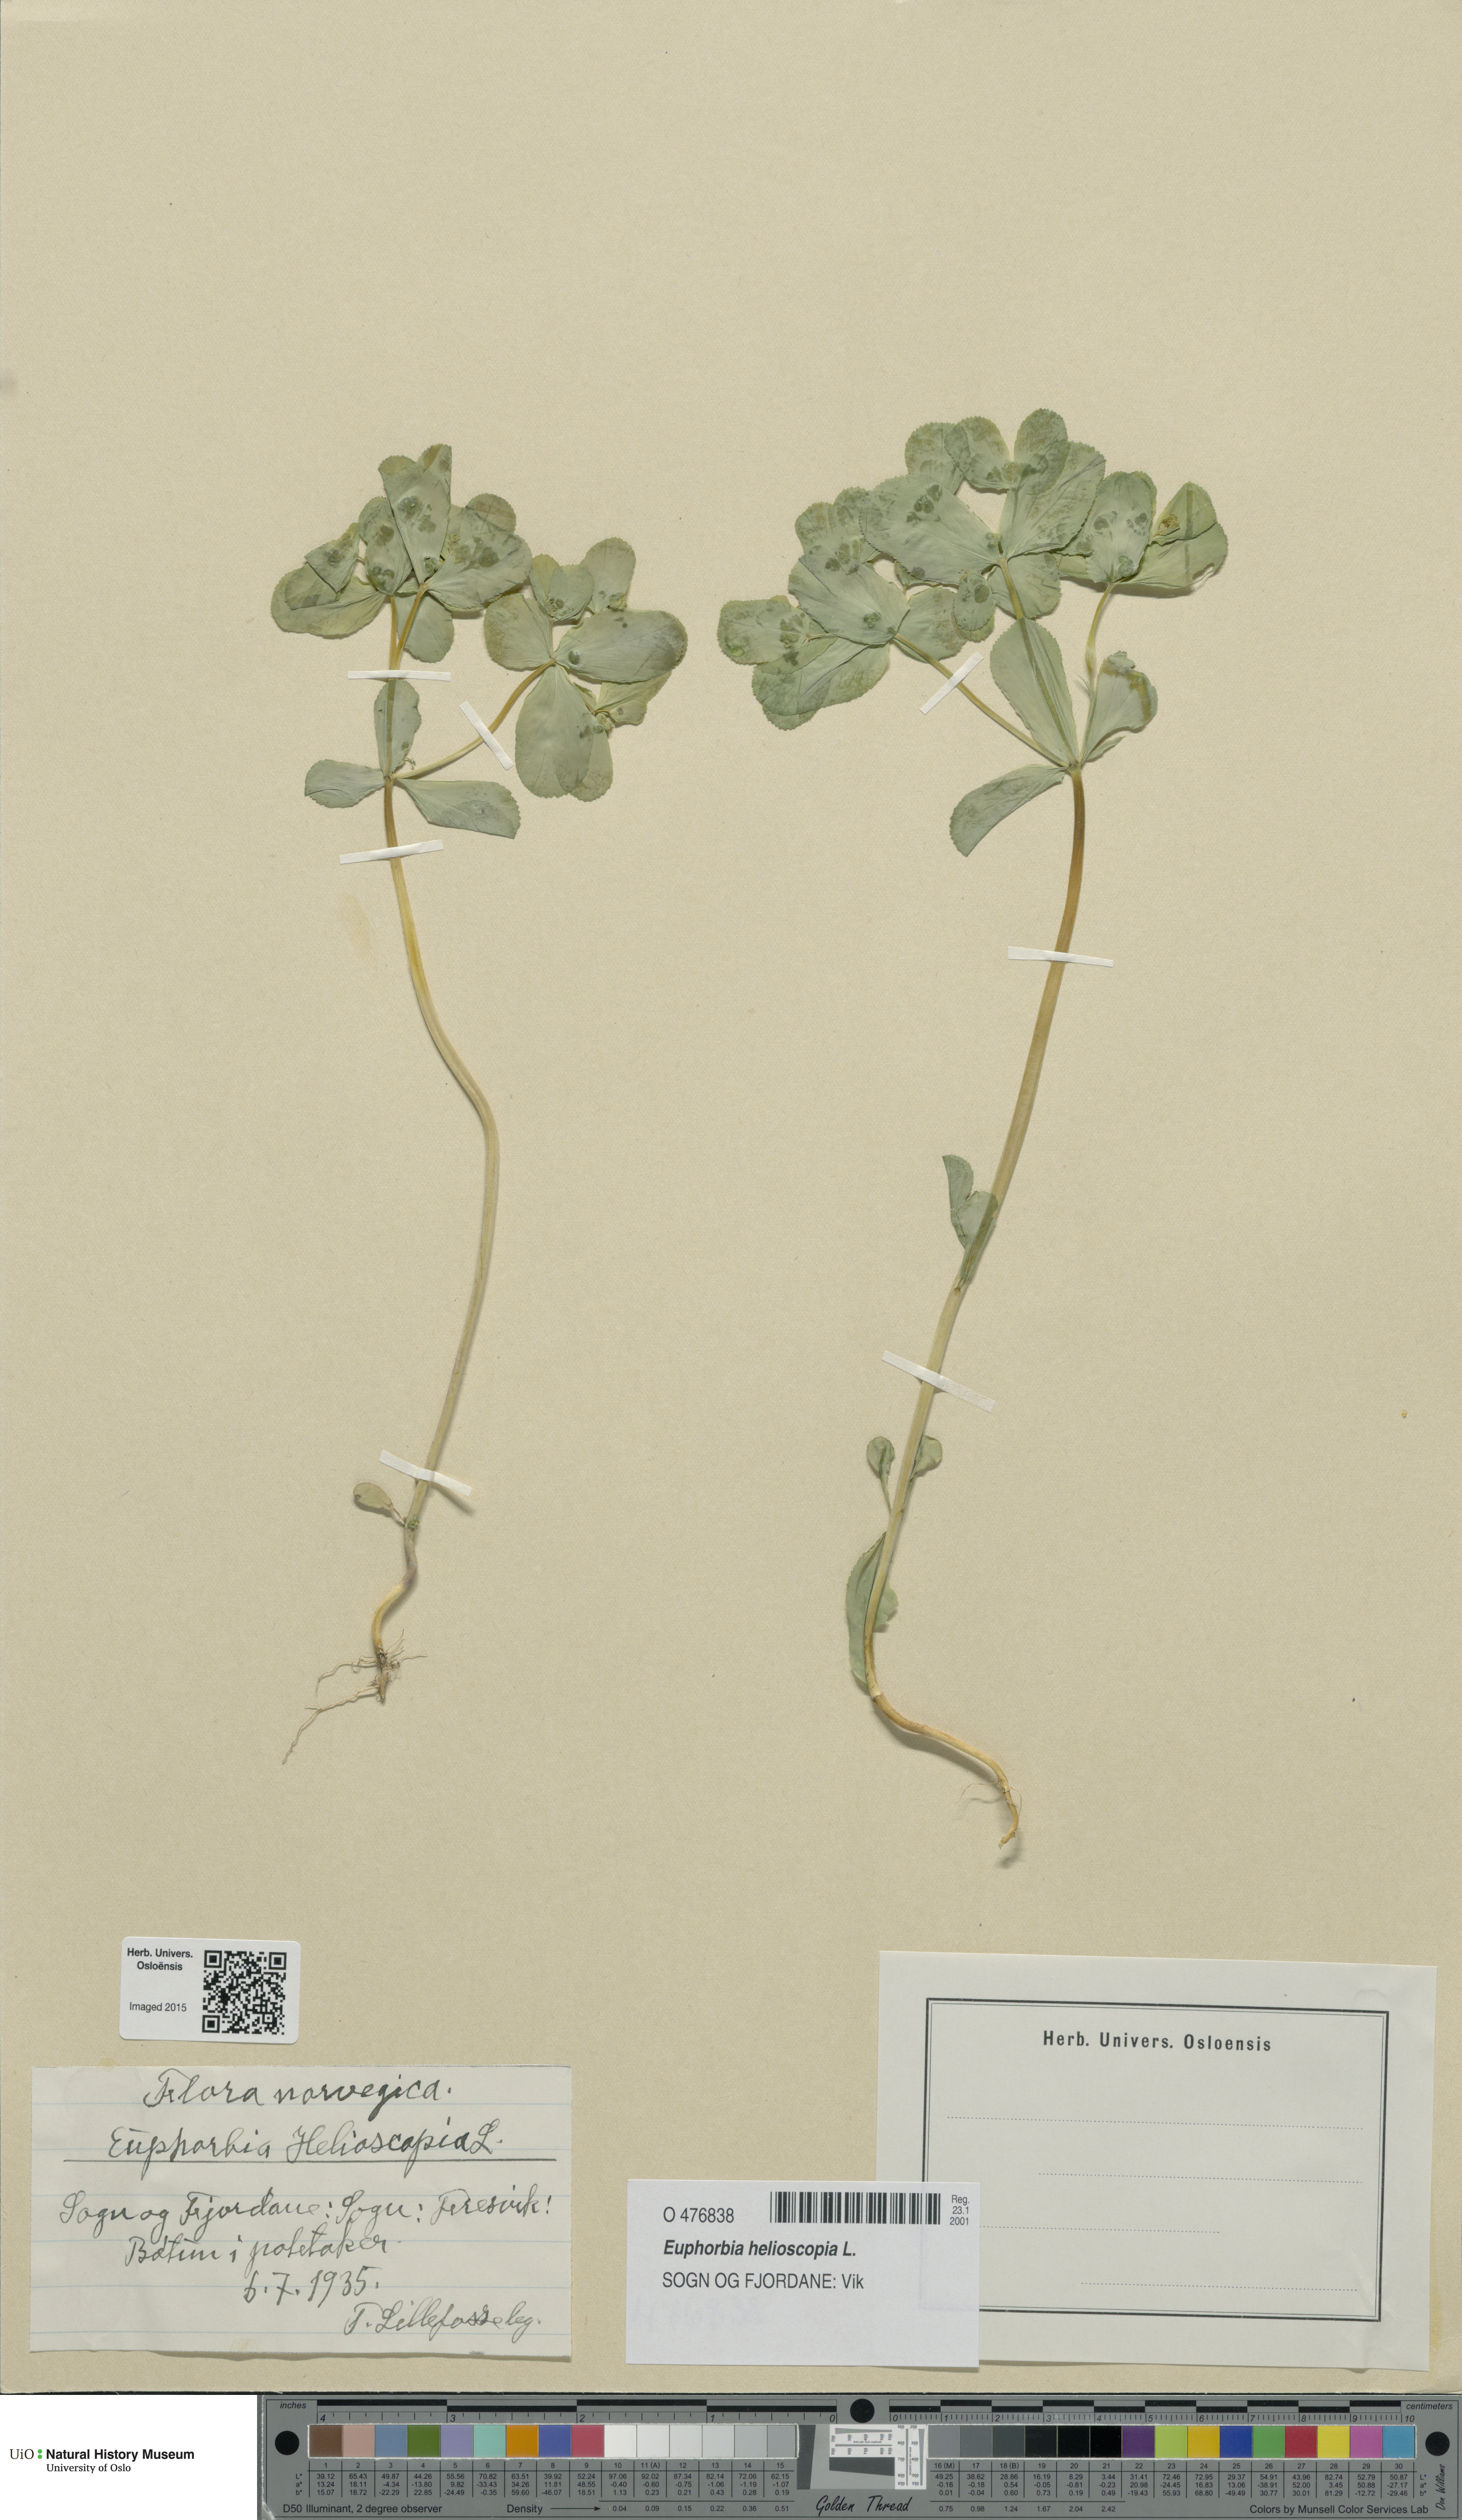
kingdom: Plantae
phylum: Tracheophyta
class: Magnoliopsida
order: Malpighiales
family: Euphorbiaceae
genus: Euphorbia
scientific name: Euphorbia helioscopia
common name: Sun spurge
